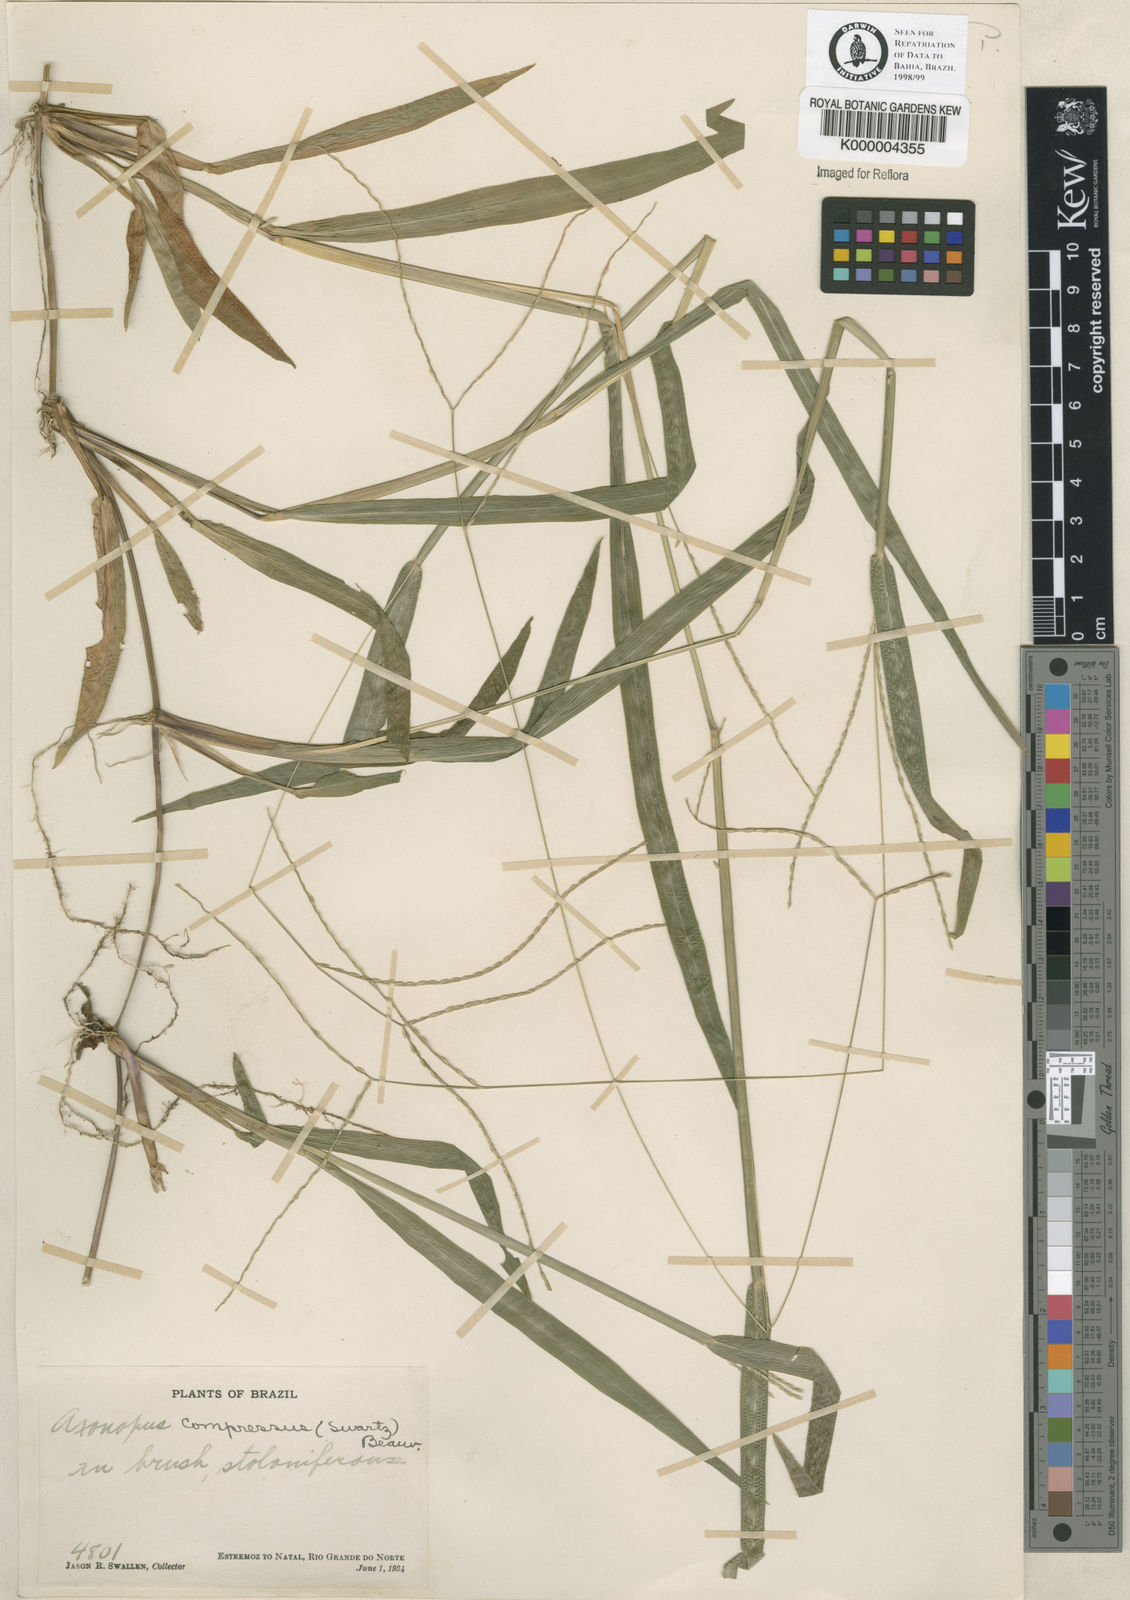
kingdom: Plantae
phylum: Tracheophyta
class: Liliopsida
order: Poales
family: Poaceae
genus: Axonopus
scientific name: Axonopus compressus
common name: American carpet grass
